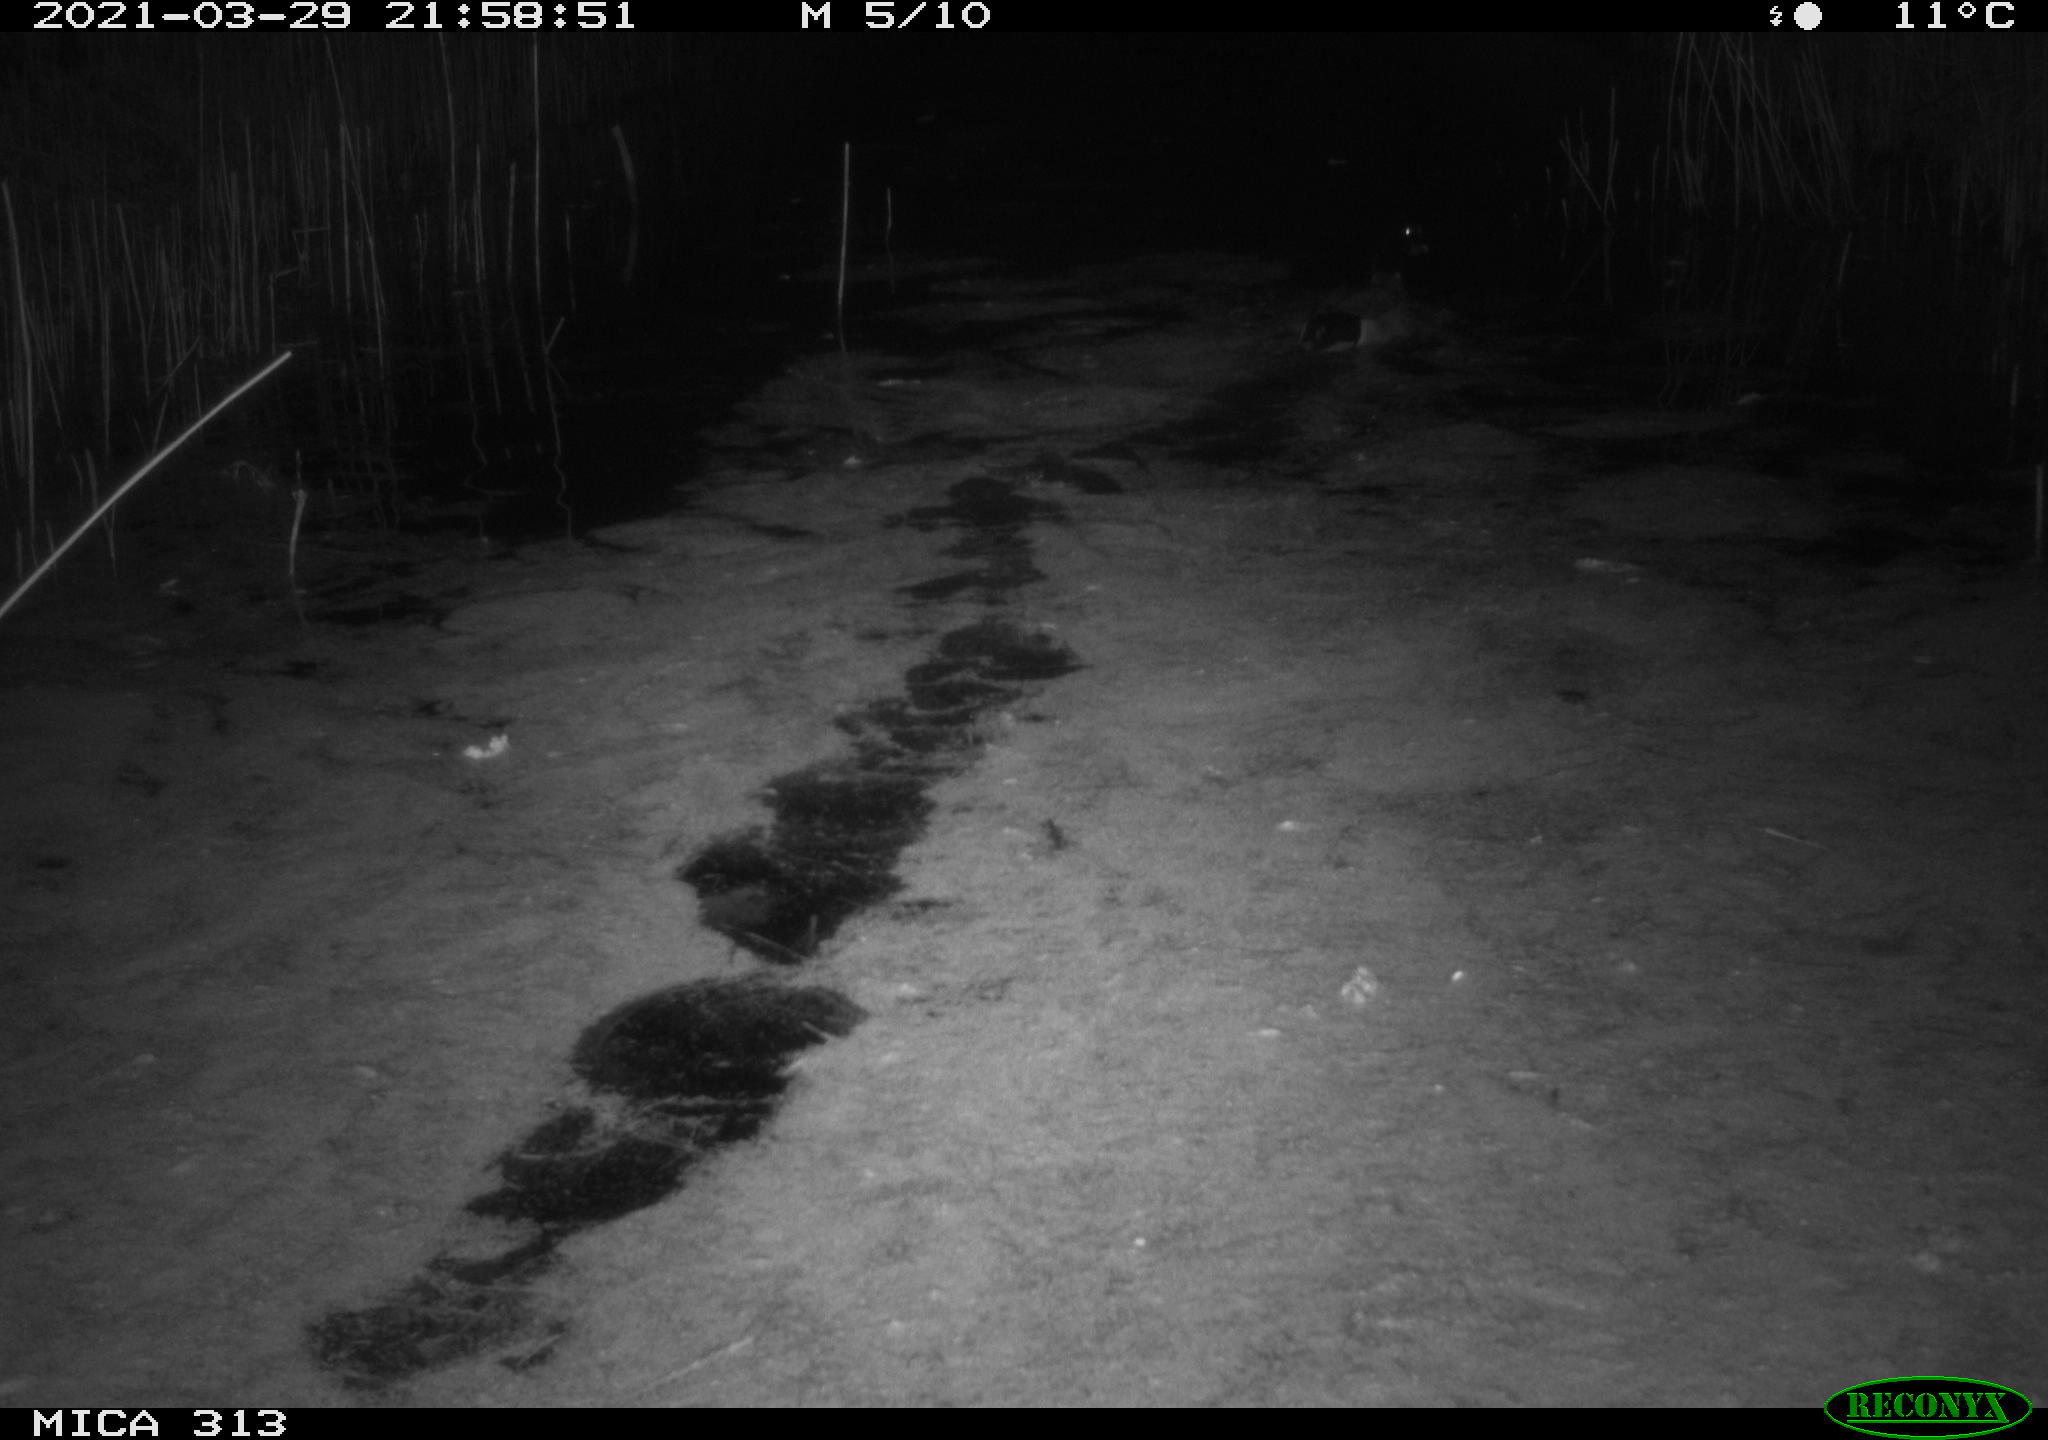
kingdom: Animalia
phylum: Chordata
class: Aves
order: Anseriformes
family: Anatidae
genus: Anas
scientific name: Anas platyrhynchos
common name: Mallard
